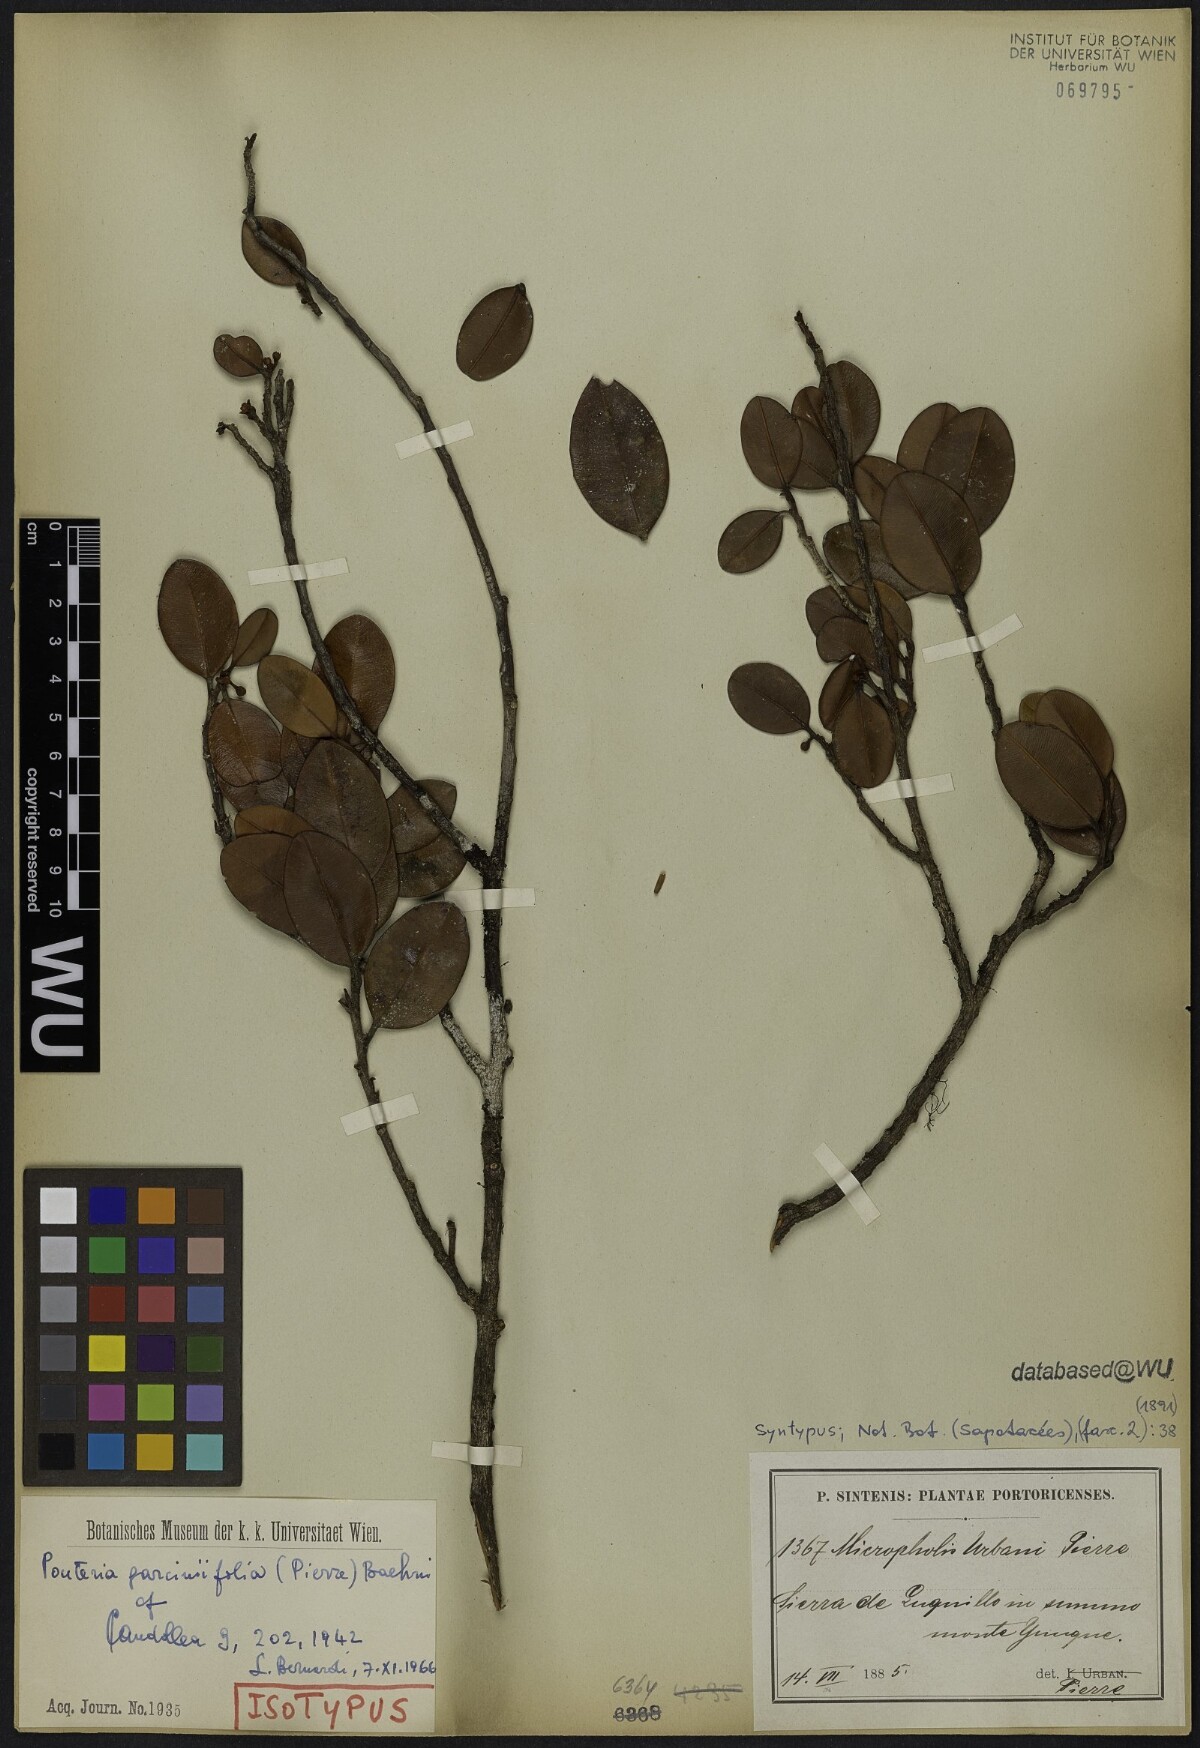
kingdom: Plantae
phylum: Tracheophyta
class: Magnoliopsida
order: Ericales
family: Sapotaceae
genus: Micropholis
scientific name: Micropholis garciniifolia
